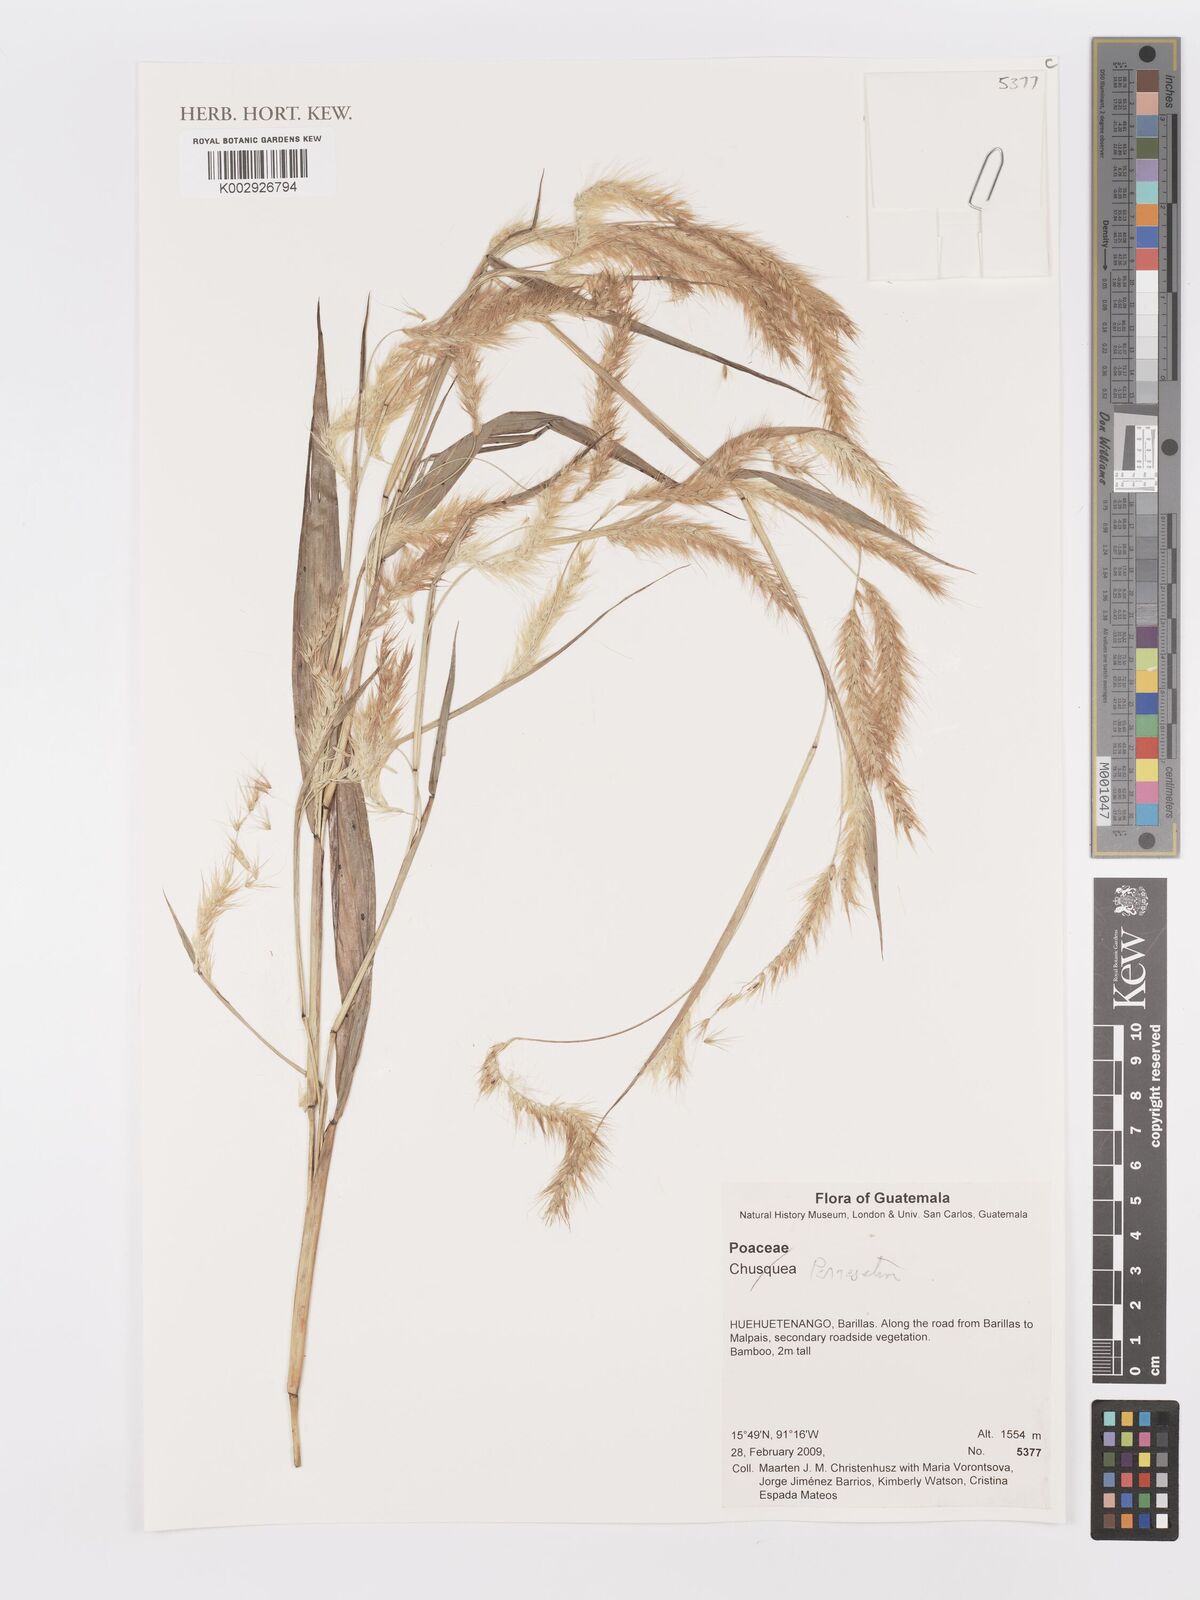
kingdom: Plantae
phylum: Tracheophyta
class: Liliopsida
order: Poales
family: Poaceae
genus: Cenchrus
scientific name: Cenchrus Pennisetum spec
